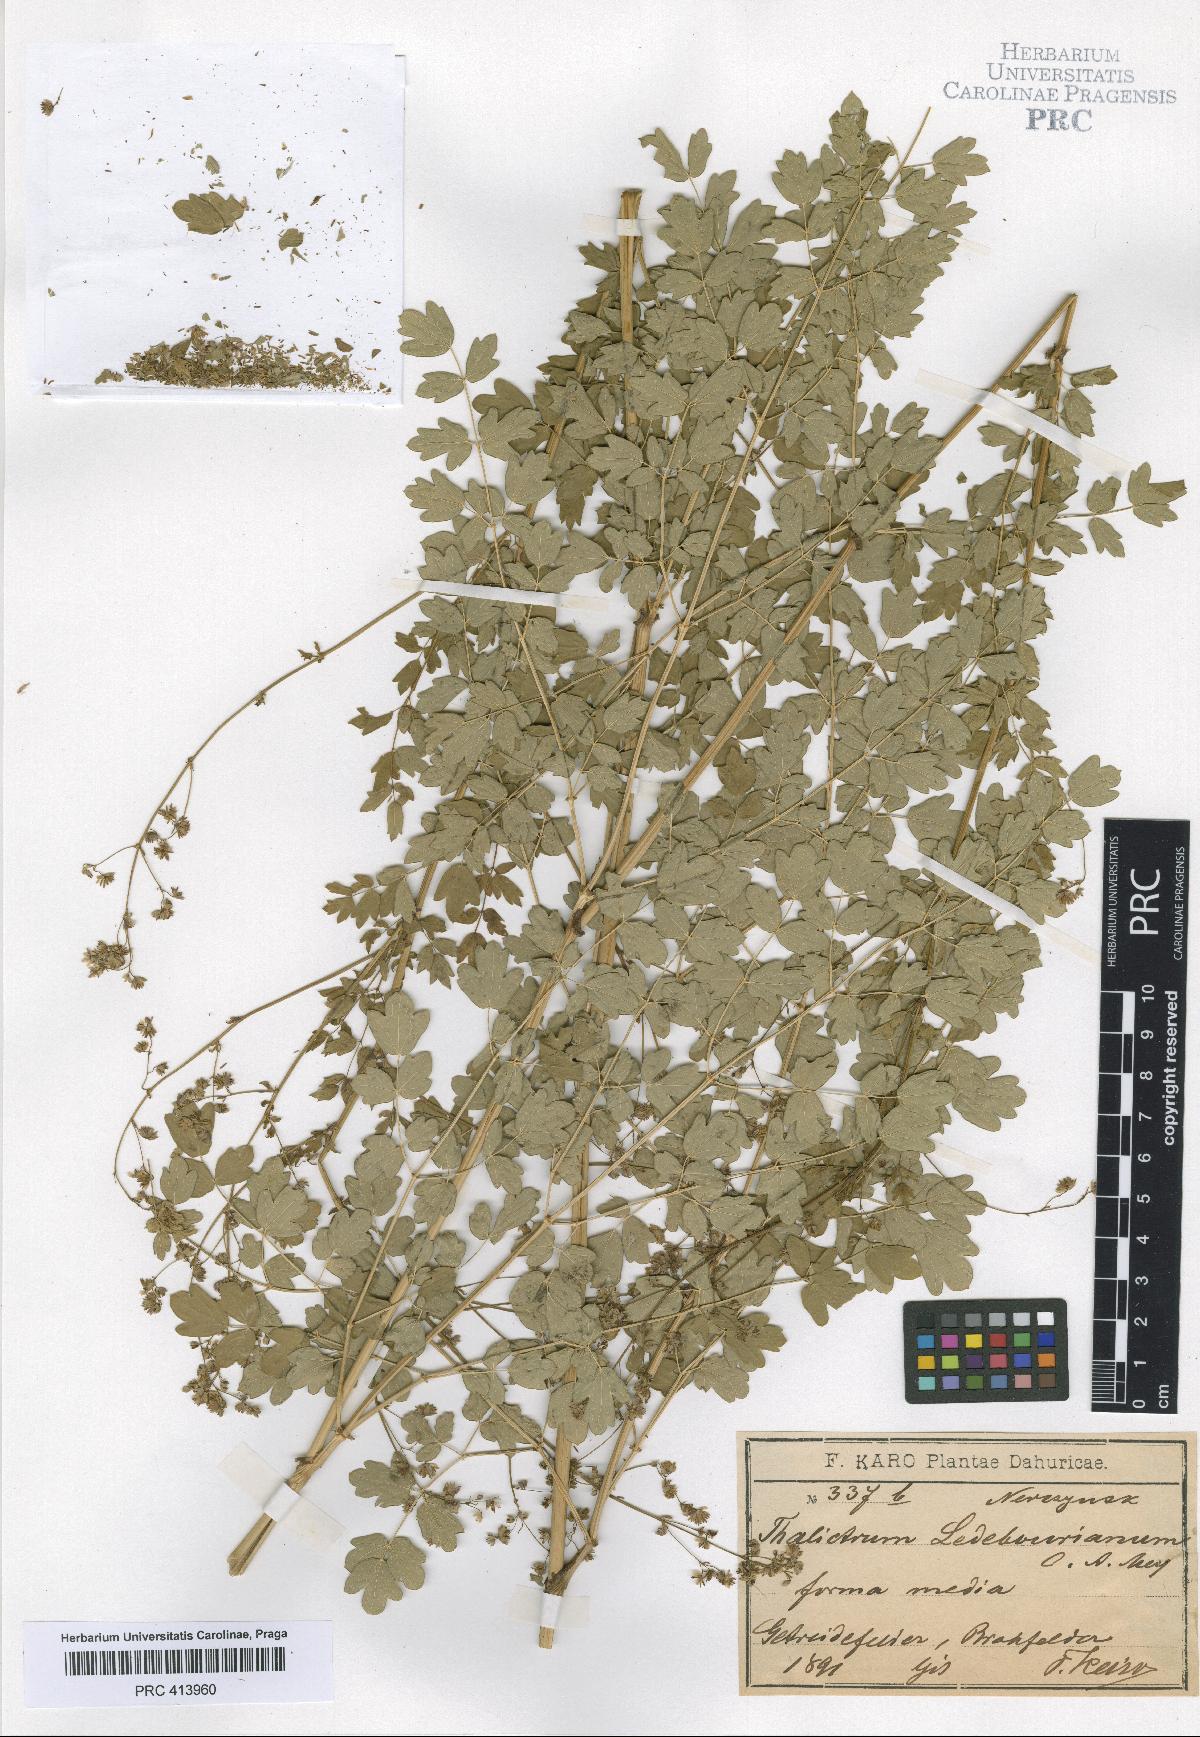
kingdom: Plantae
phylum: Tracheophyta
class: Magnoliopsida
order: Ranunculales
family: Ranunculaceae
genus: Thalictrum
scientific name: Thalictrum squarrosum
